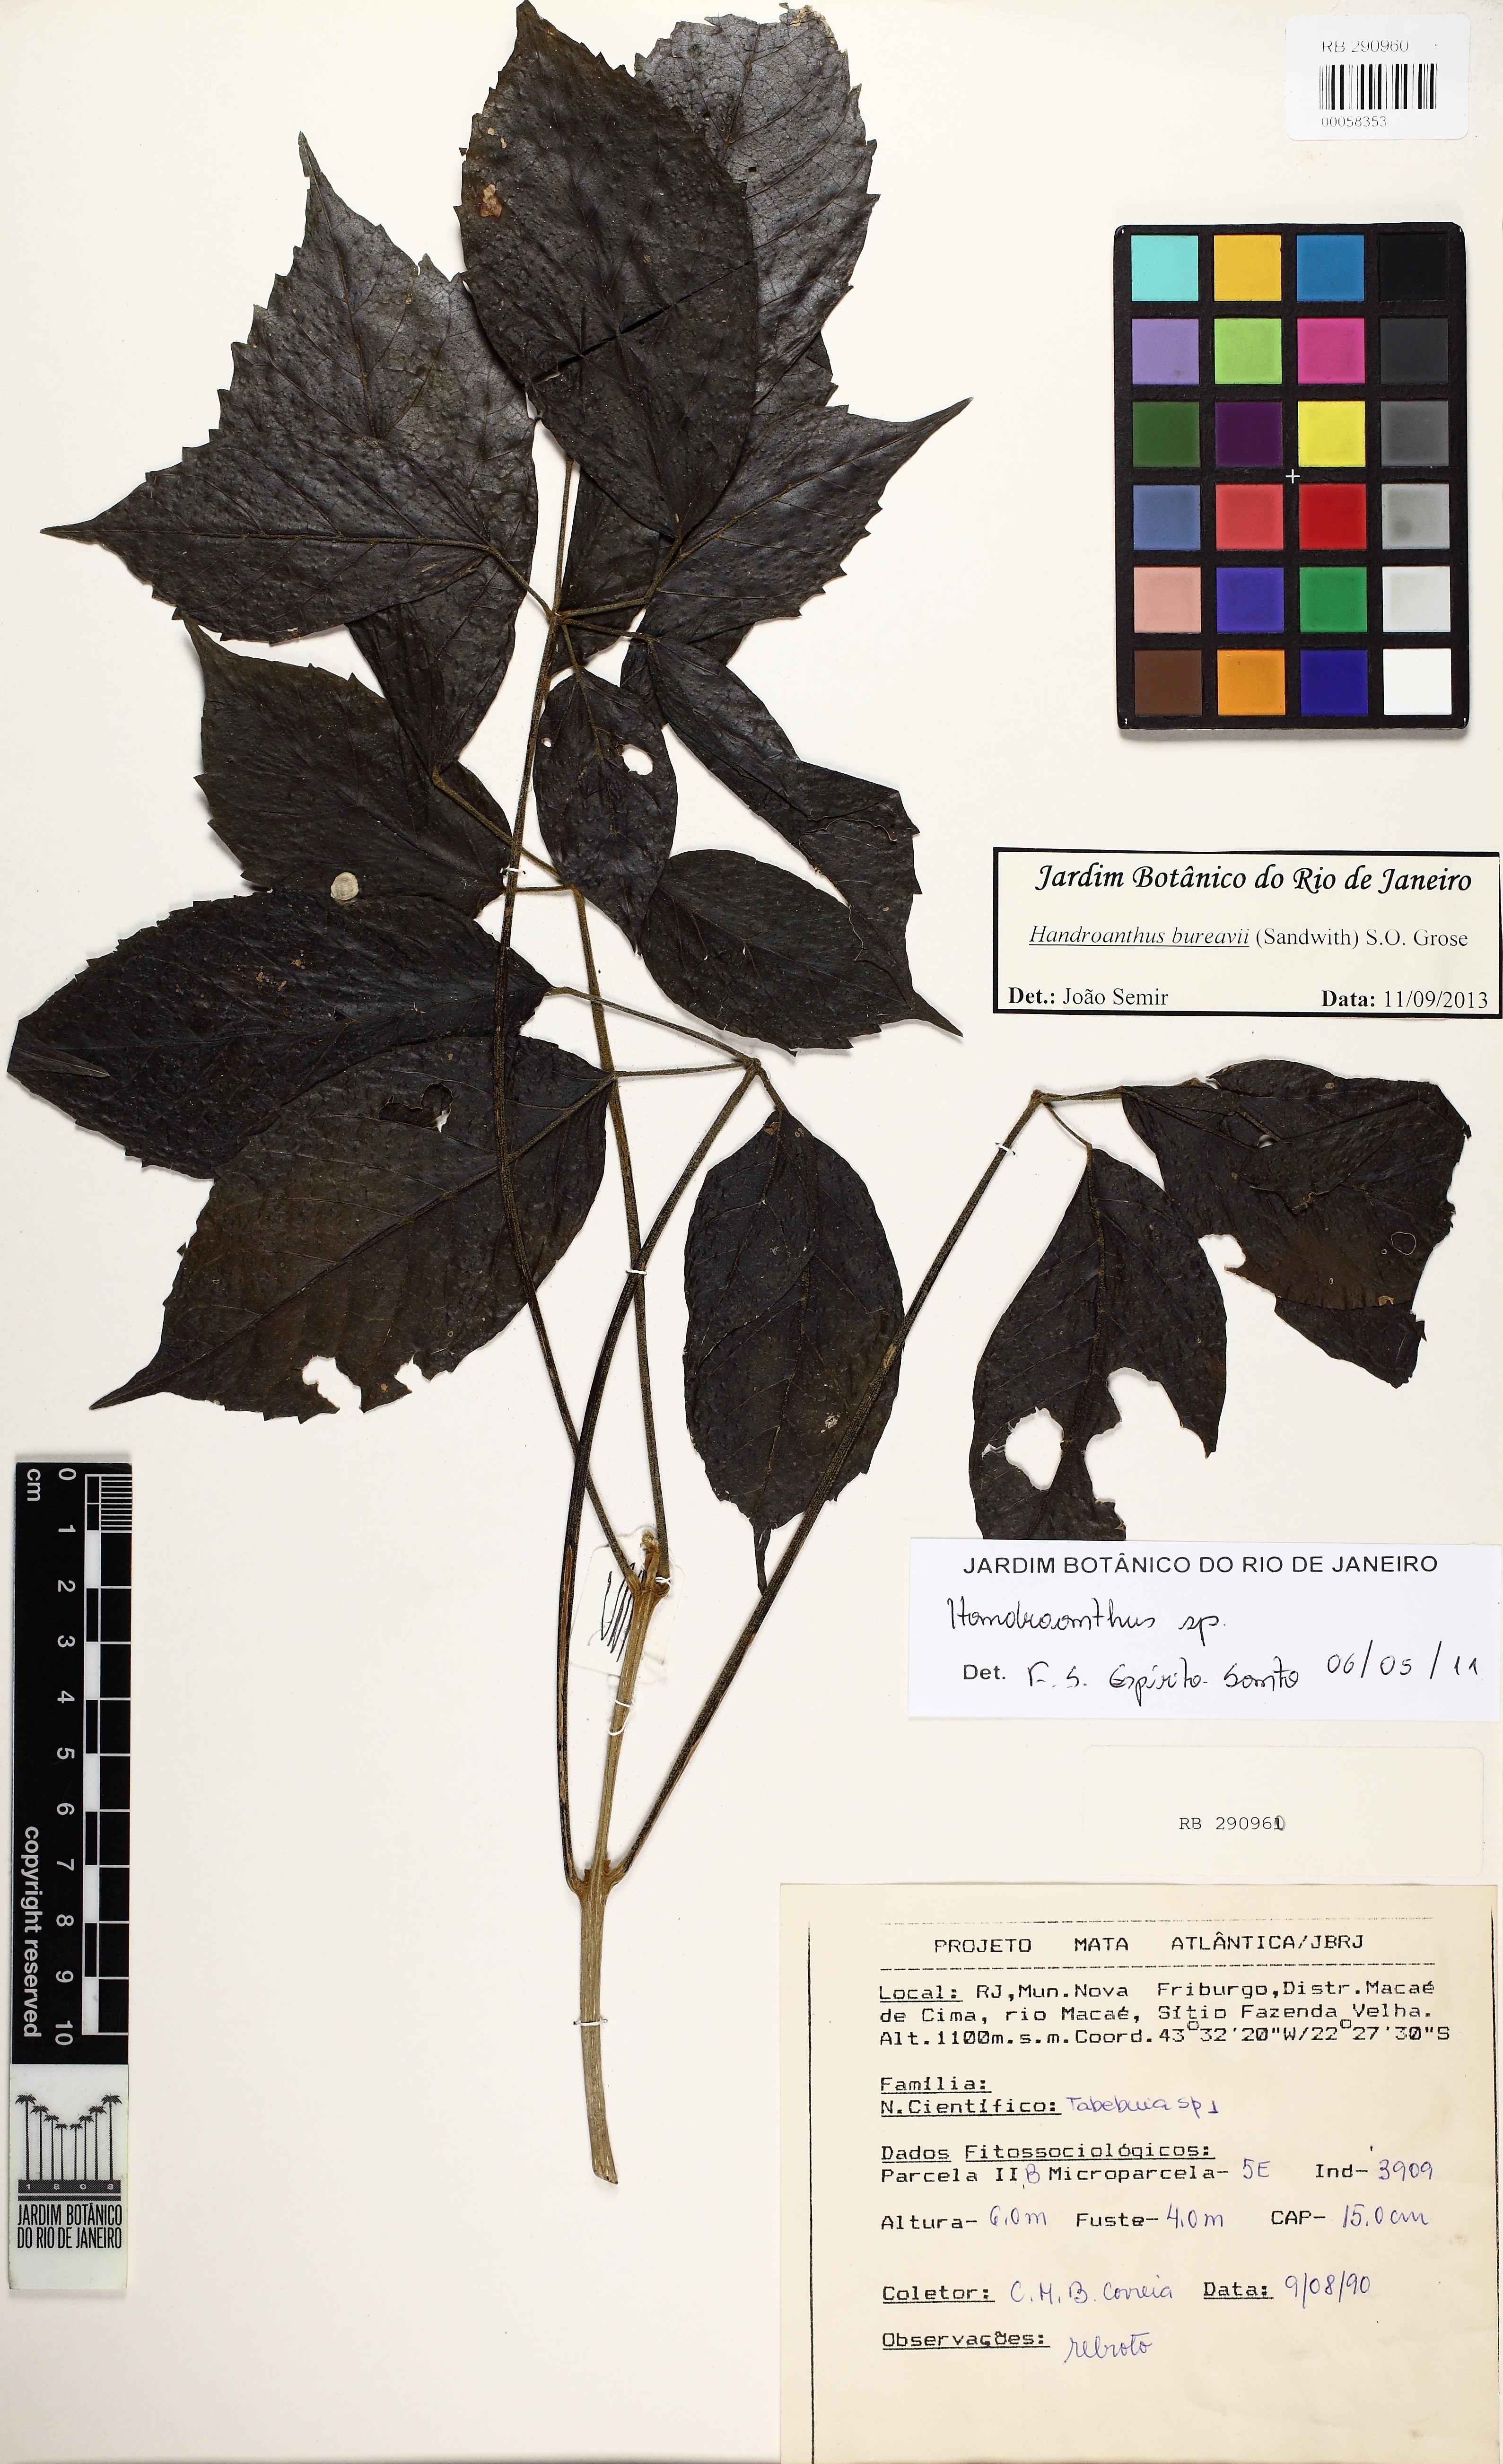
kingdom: Plantae
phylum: Tracheophyta
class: Magnoliopsida
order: Lamiales
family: Bignoniaceae
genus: Handroanthus
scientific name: Handroanthus bureavii
